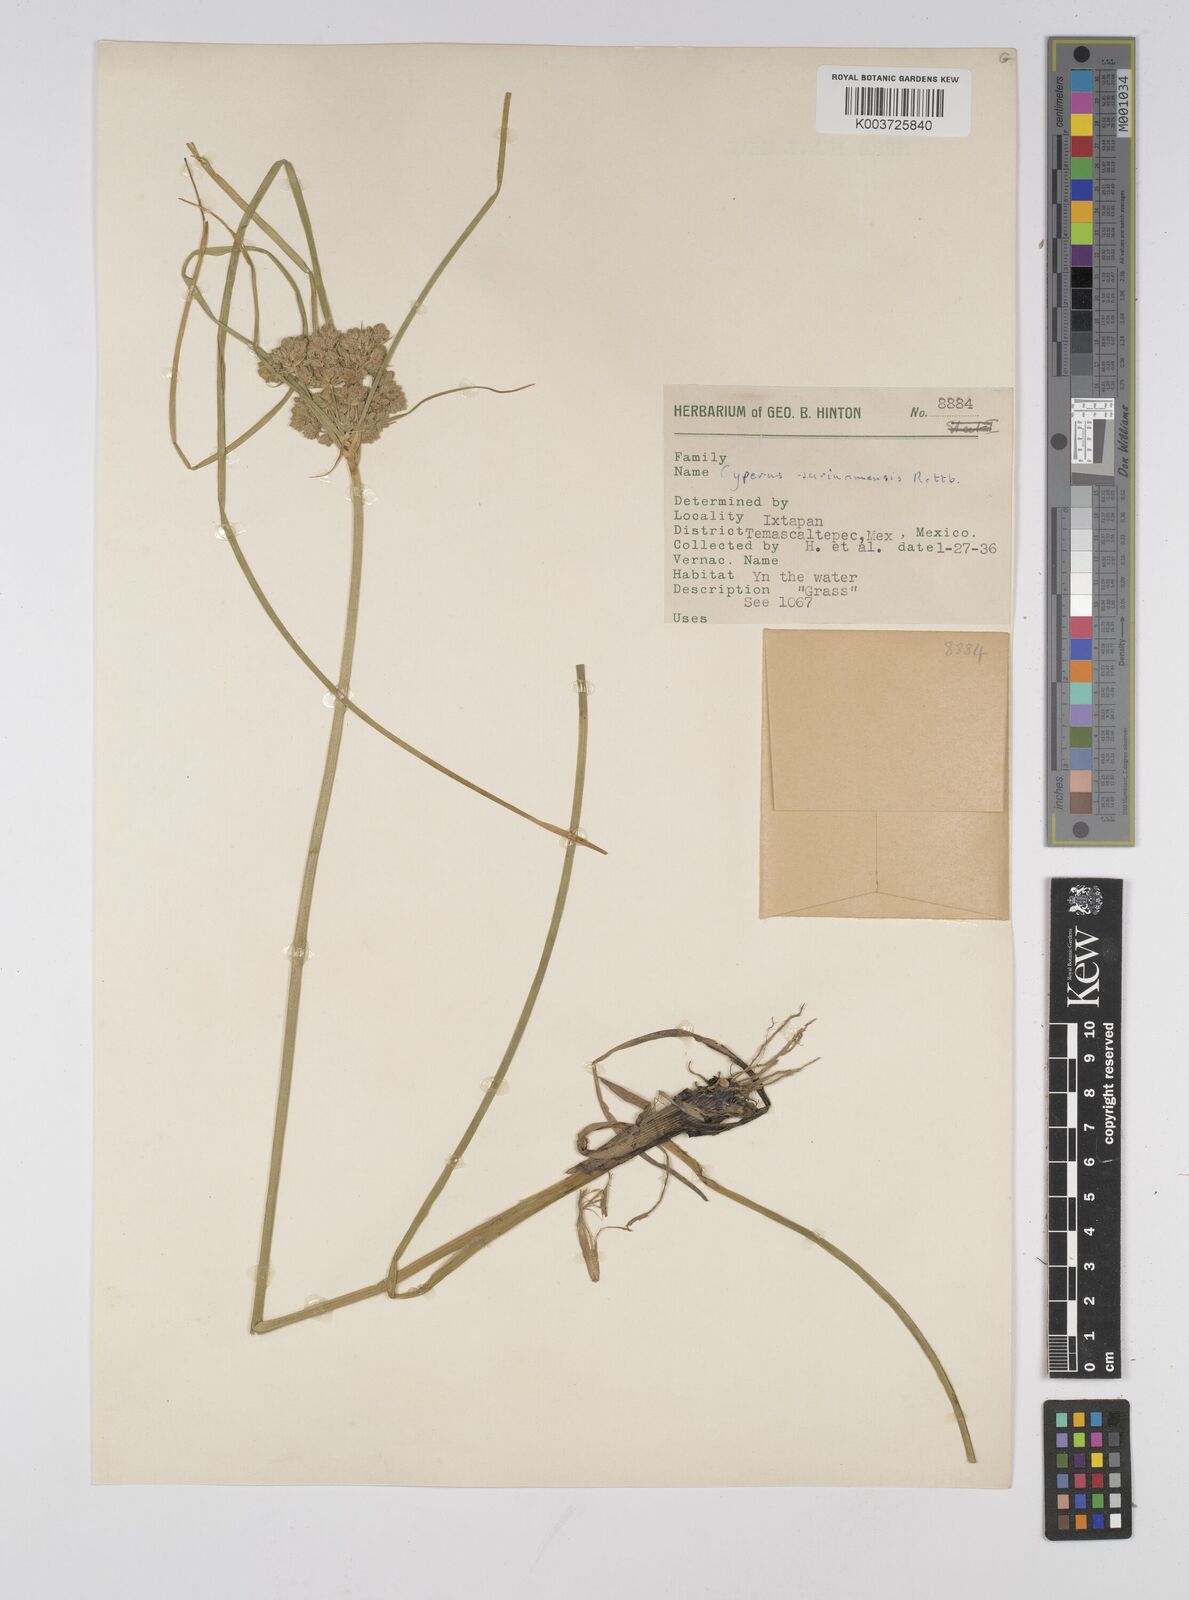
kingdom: Plantae
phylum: Tracheophyta
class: Liliopsida
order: Poales
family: Cyperaceae
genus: Cyperus
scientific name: Cyperus surinamensis
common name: Tropical flat sedge
